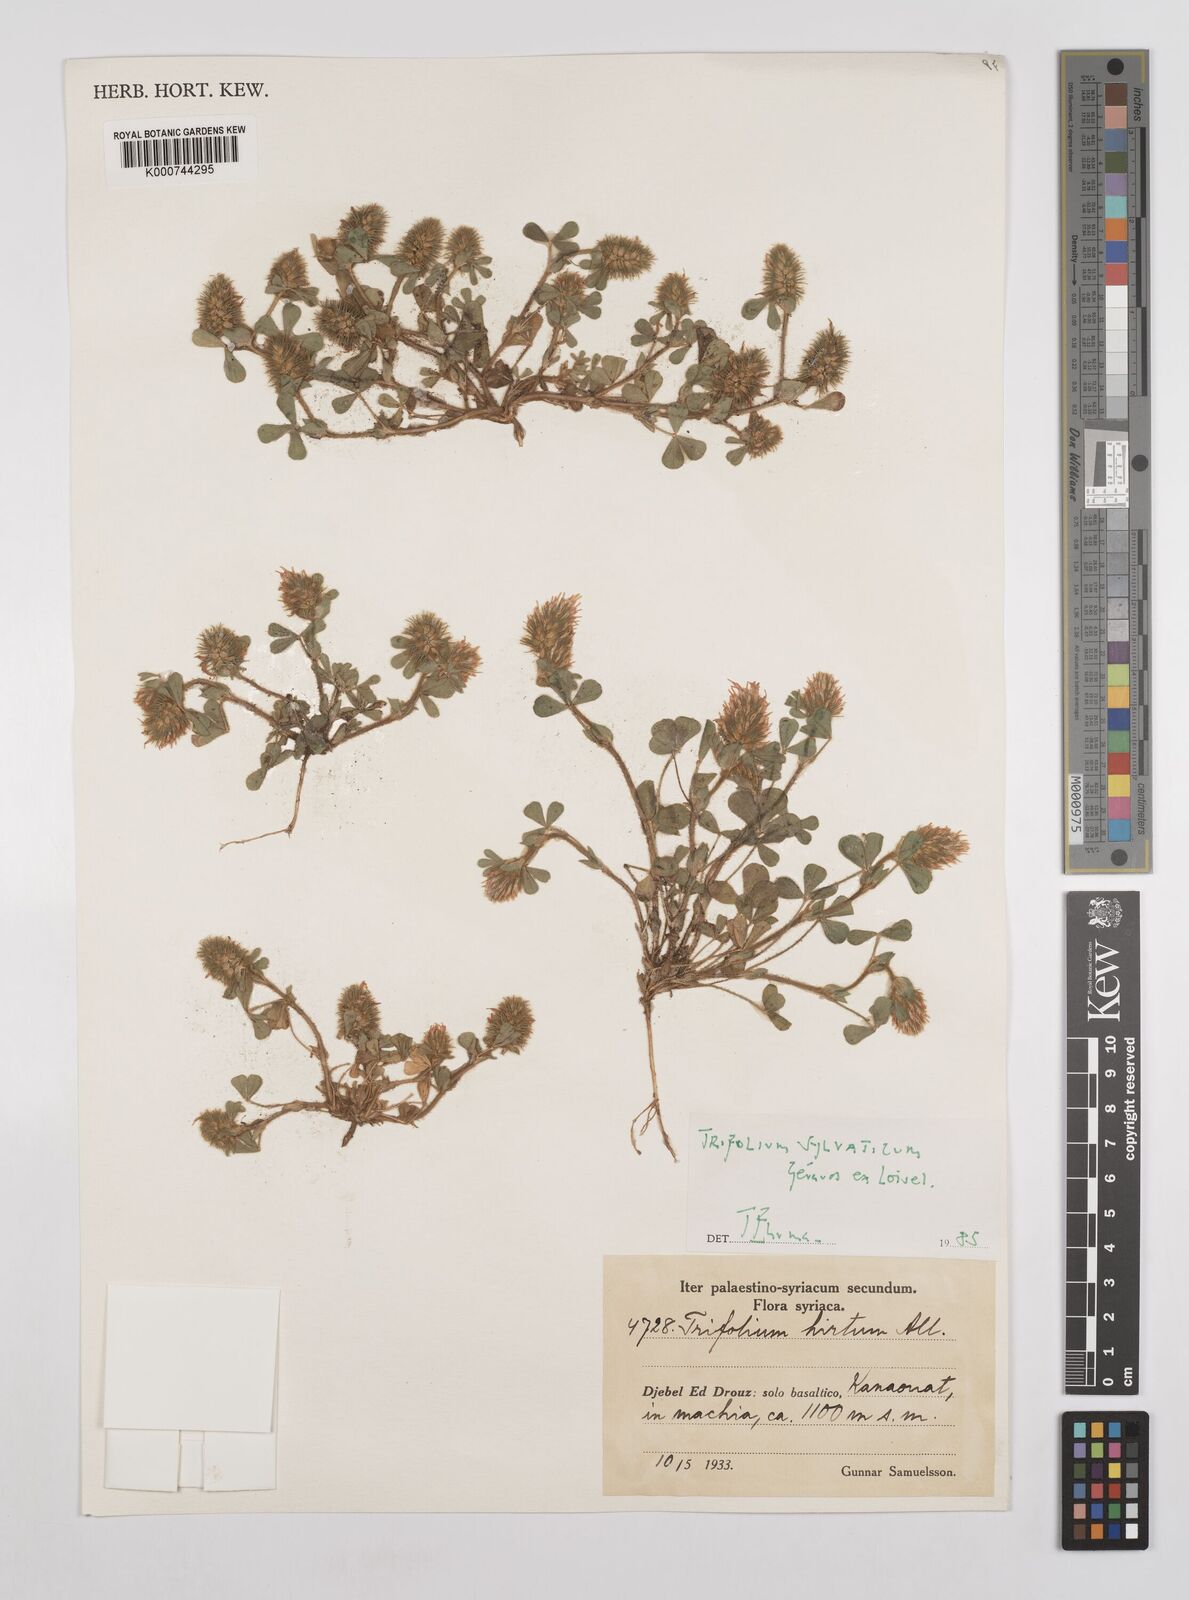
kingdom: Plantae
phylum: Tracheophyta
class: Magnoliopsida
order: Fabales
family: Fabaceae
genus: Trifolium
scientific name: Trifolium hirtum
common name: Rose clover
